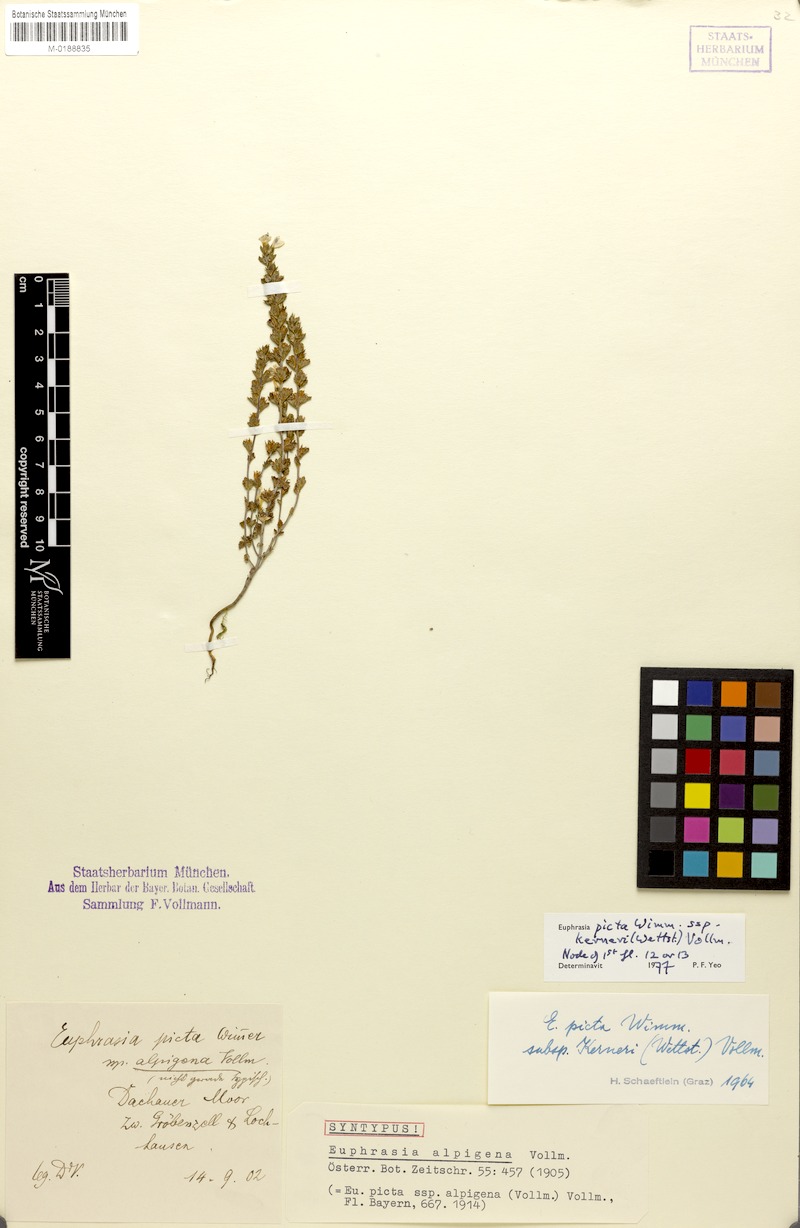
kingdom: Plantae
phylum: Tracheophyta
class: Magnoliopsida
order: Lamiales
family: Orobanchaceae
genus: Euphrasia
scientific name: Euphrasia kerneri
